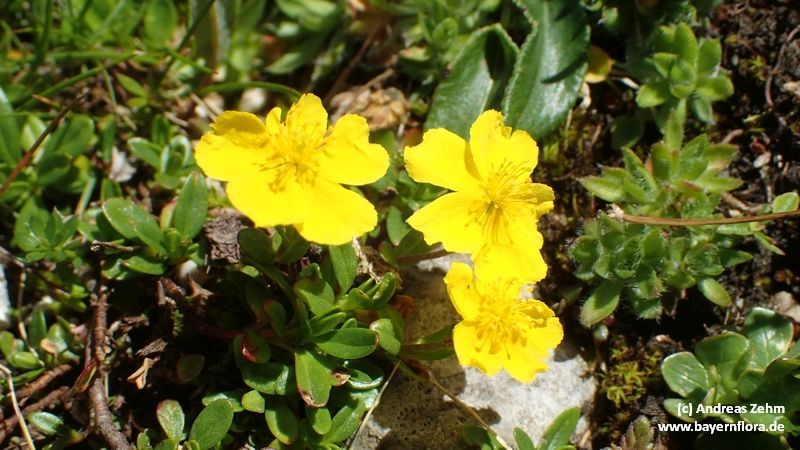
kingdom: Plantae
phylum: Tracheophyta
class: Magnoliopsida
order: Malvales
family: Cistaceae
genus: Helianthemum
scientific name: Helianthemum alpestre
